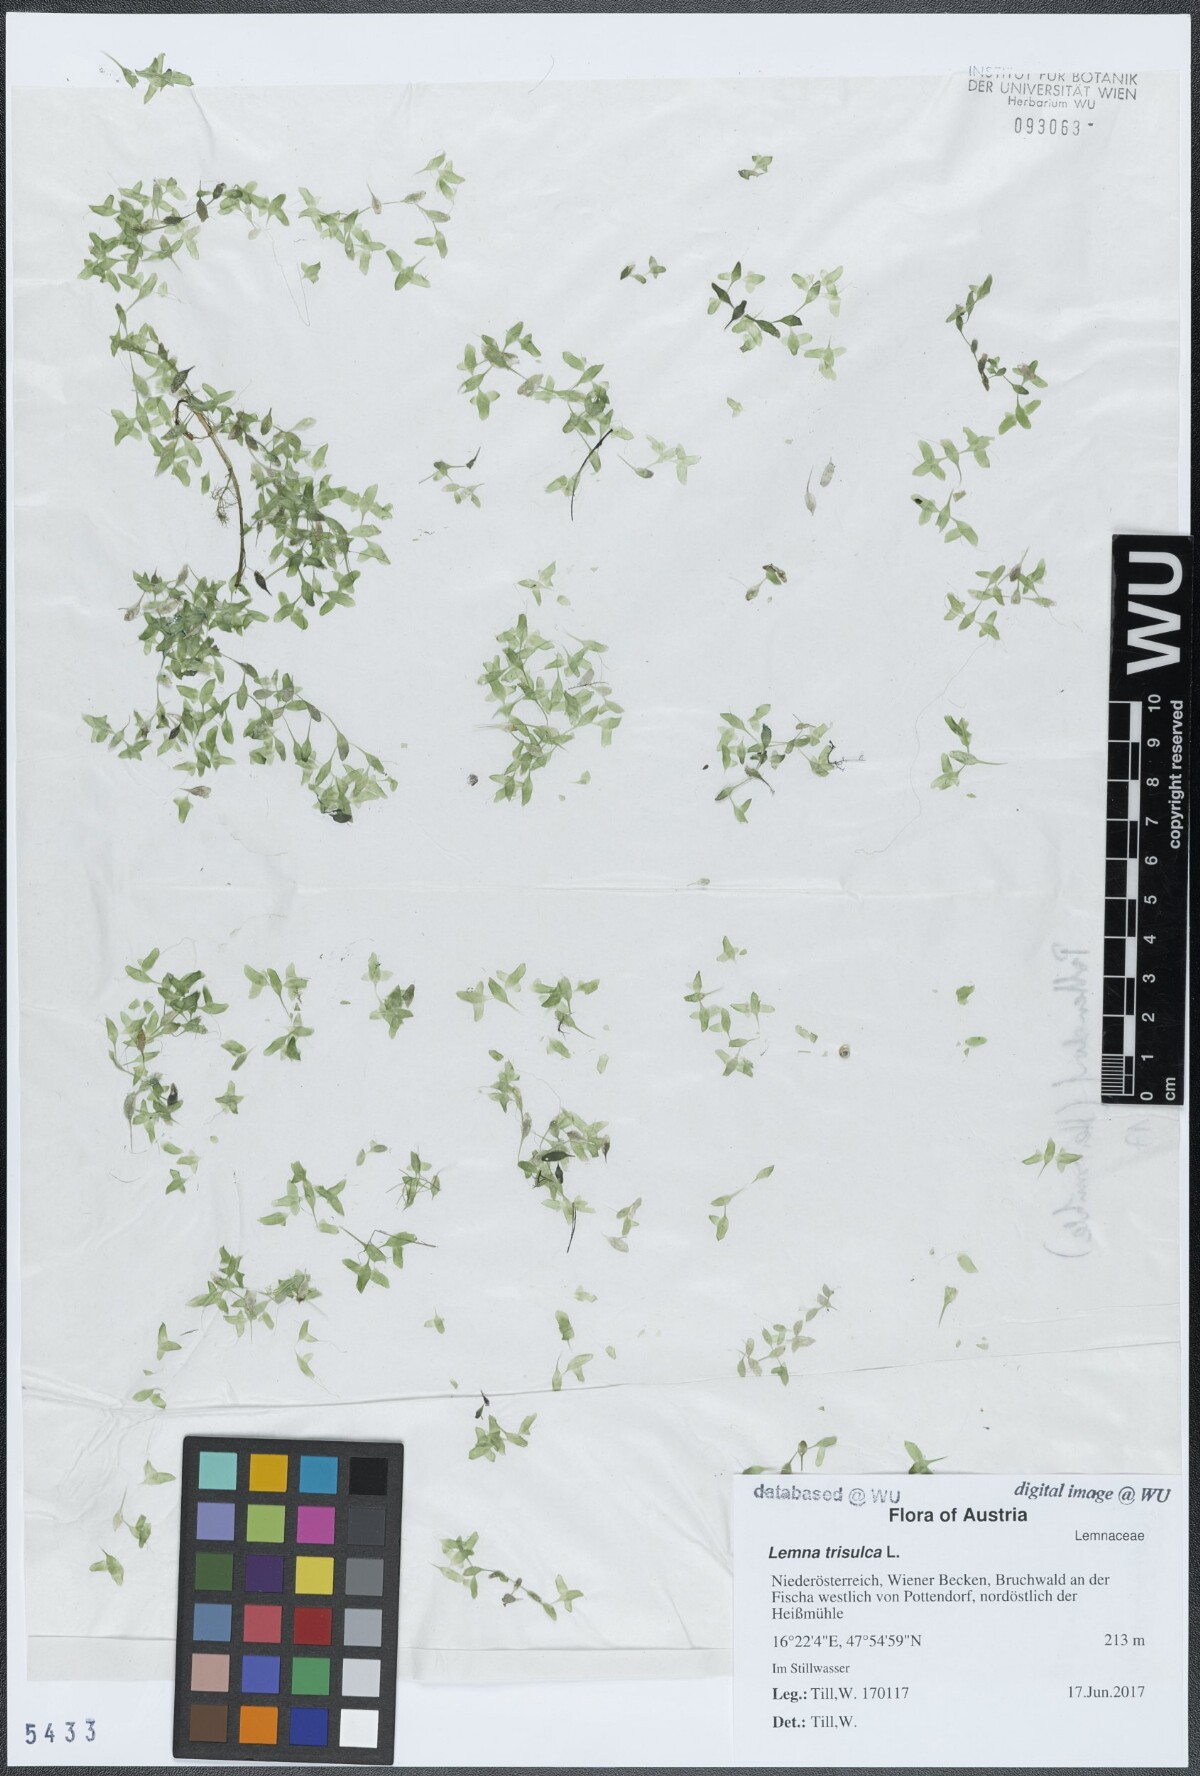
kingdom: Plantae
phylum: Tracheophyta
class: Liliopsida
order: Alismatales
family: Araceae
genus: Lemna
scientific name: Lemna trisulca
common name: Ivy-leaved duckweed
